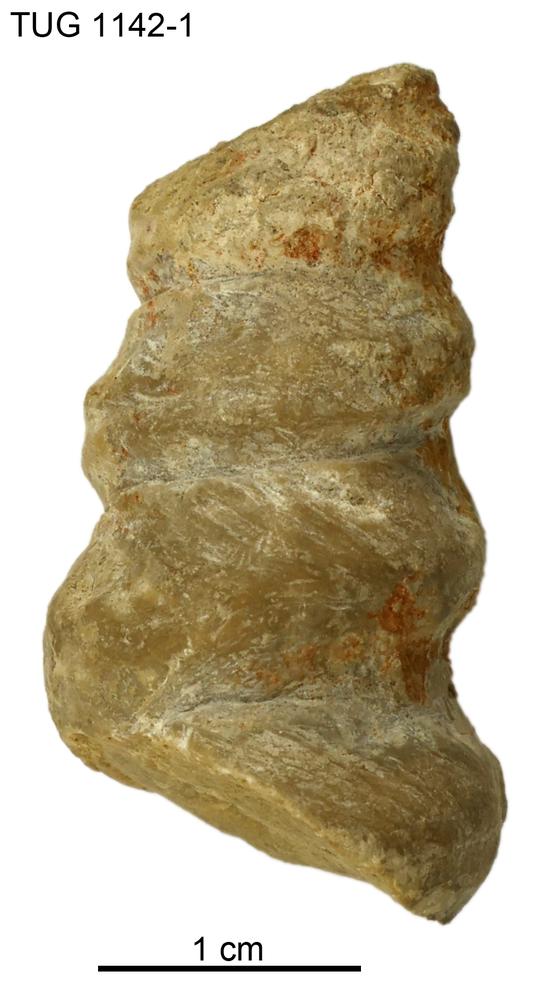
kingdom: Animalia
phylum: Mollusca
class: Gastropoda
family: Lophospiridae
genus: Ectomaria
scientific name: Ectomaria Murchisonia nieszkowskii
